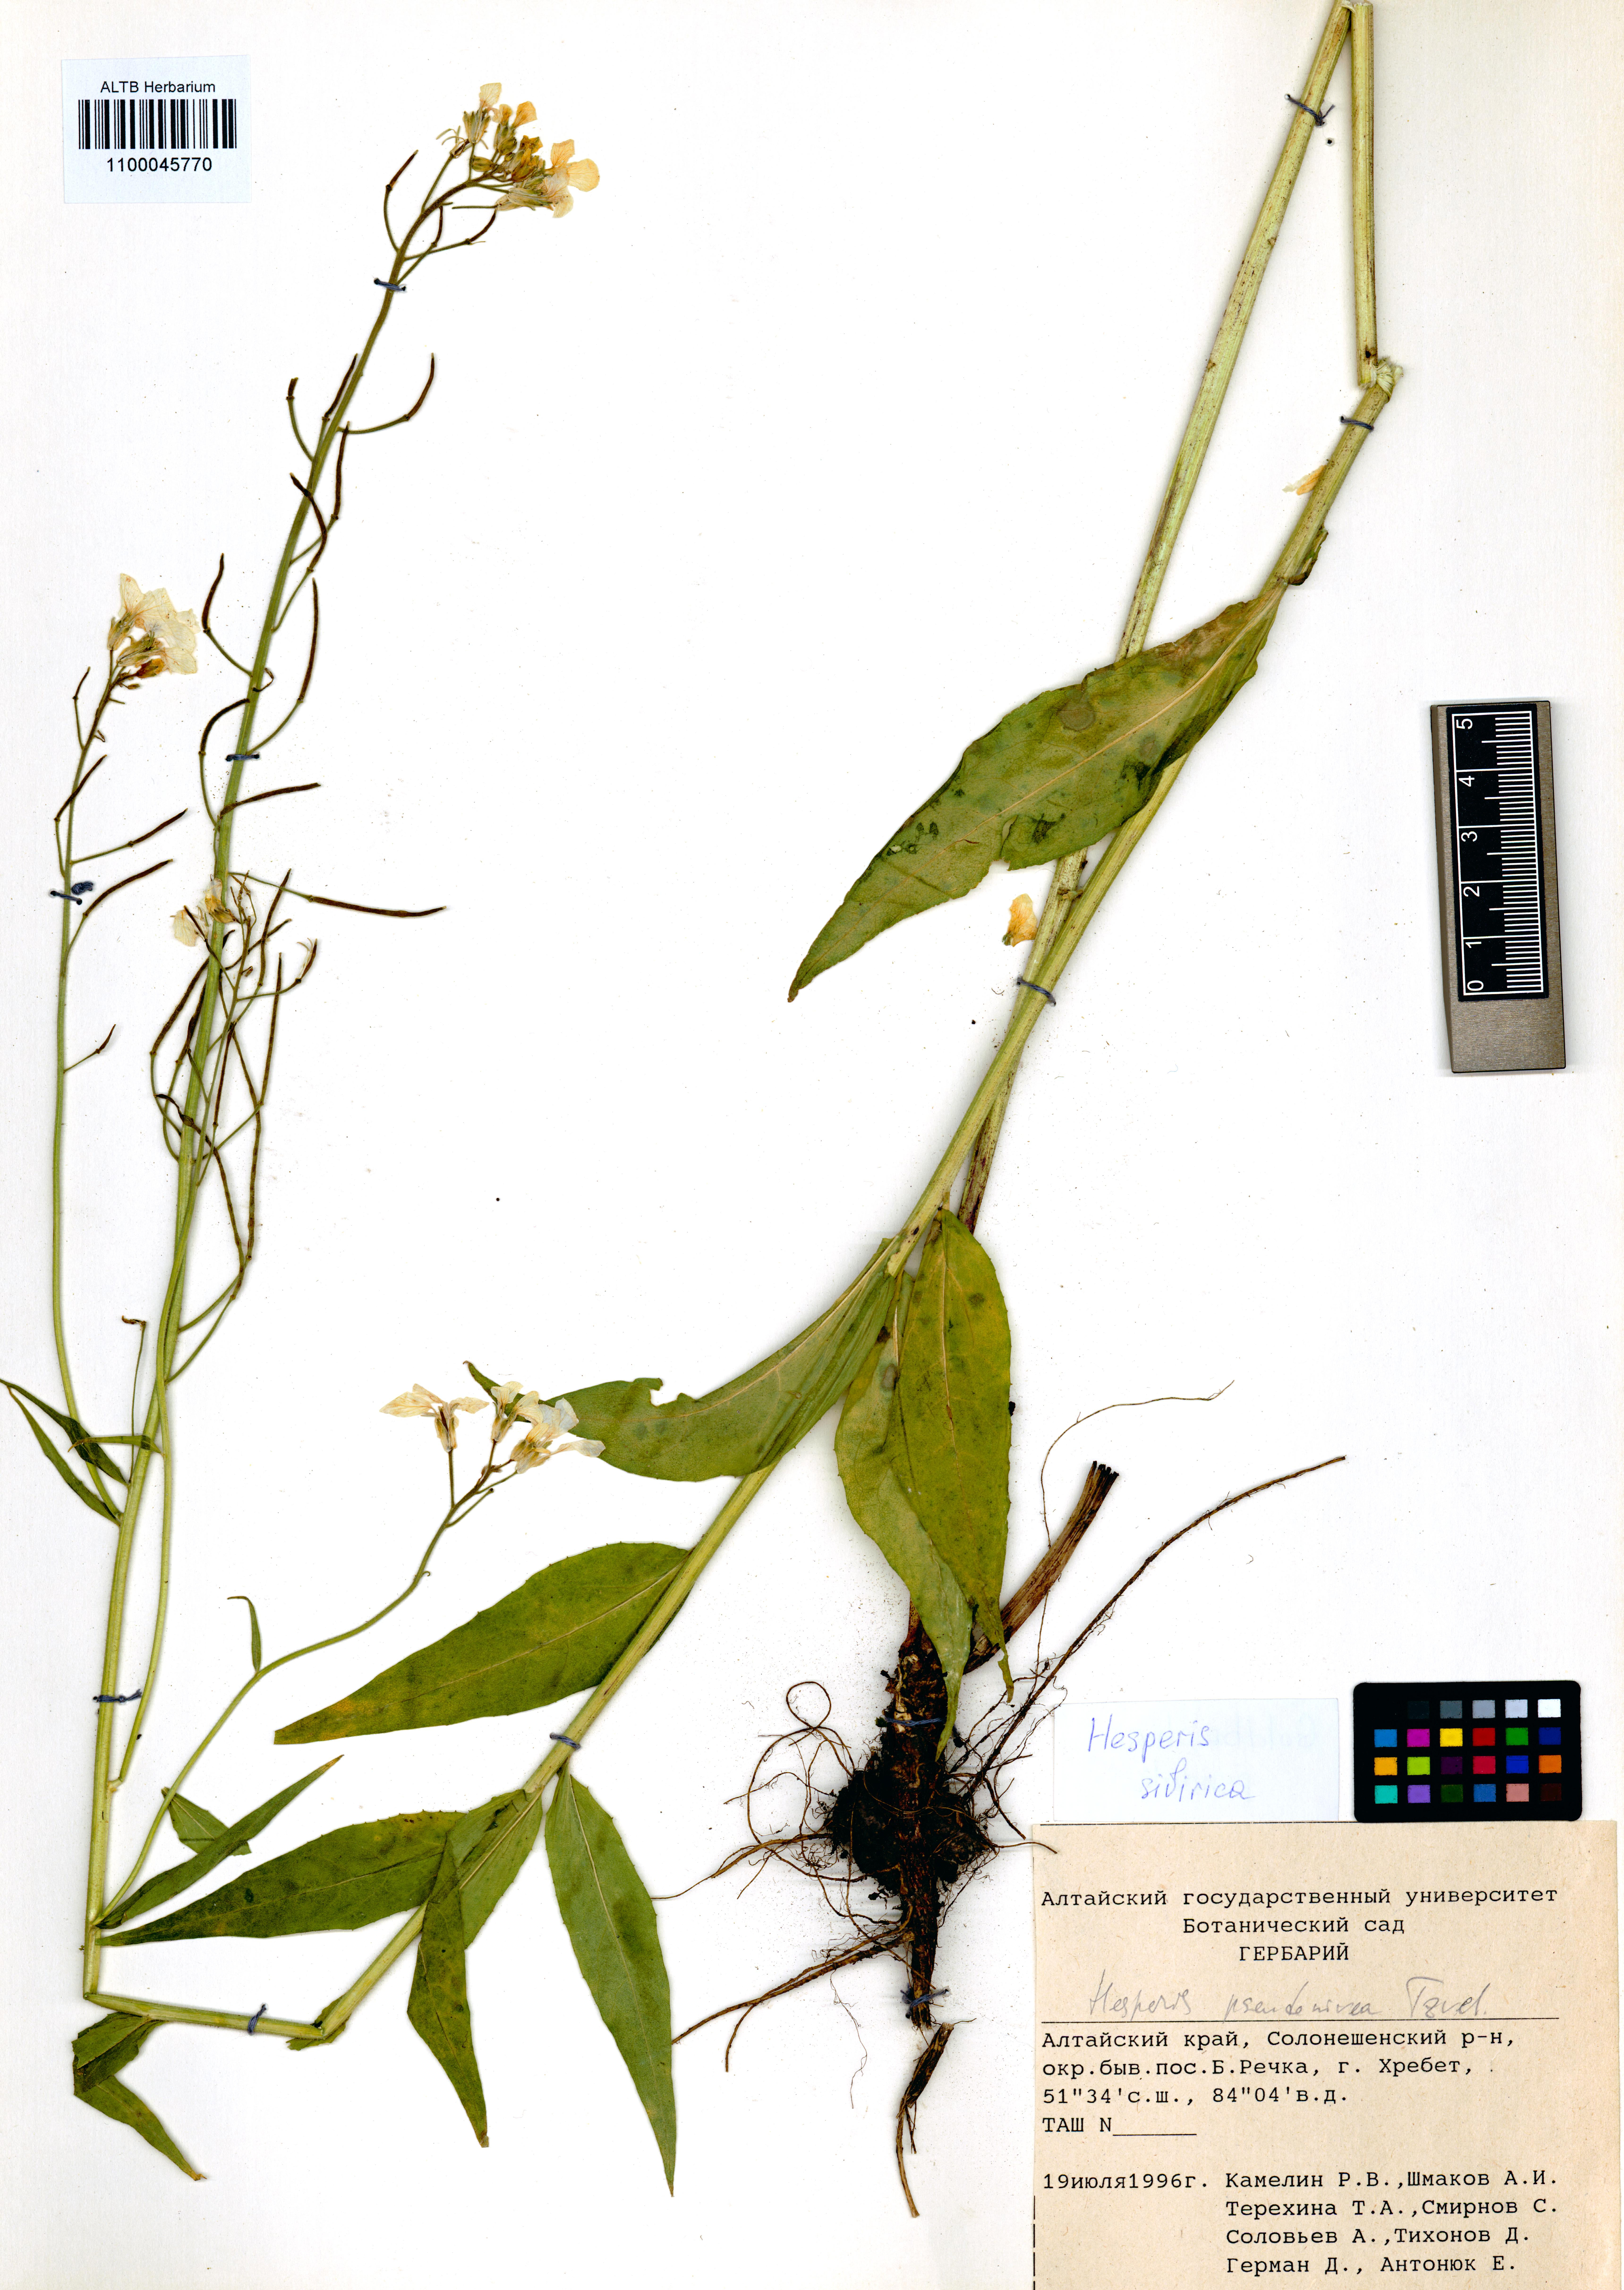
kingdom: Plantae
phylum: Tracheophyta
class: Magnoliopsida
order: Brassicales
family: Brassicaceae
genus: Hesperis
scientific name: Hesperis sibirica
